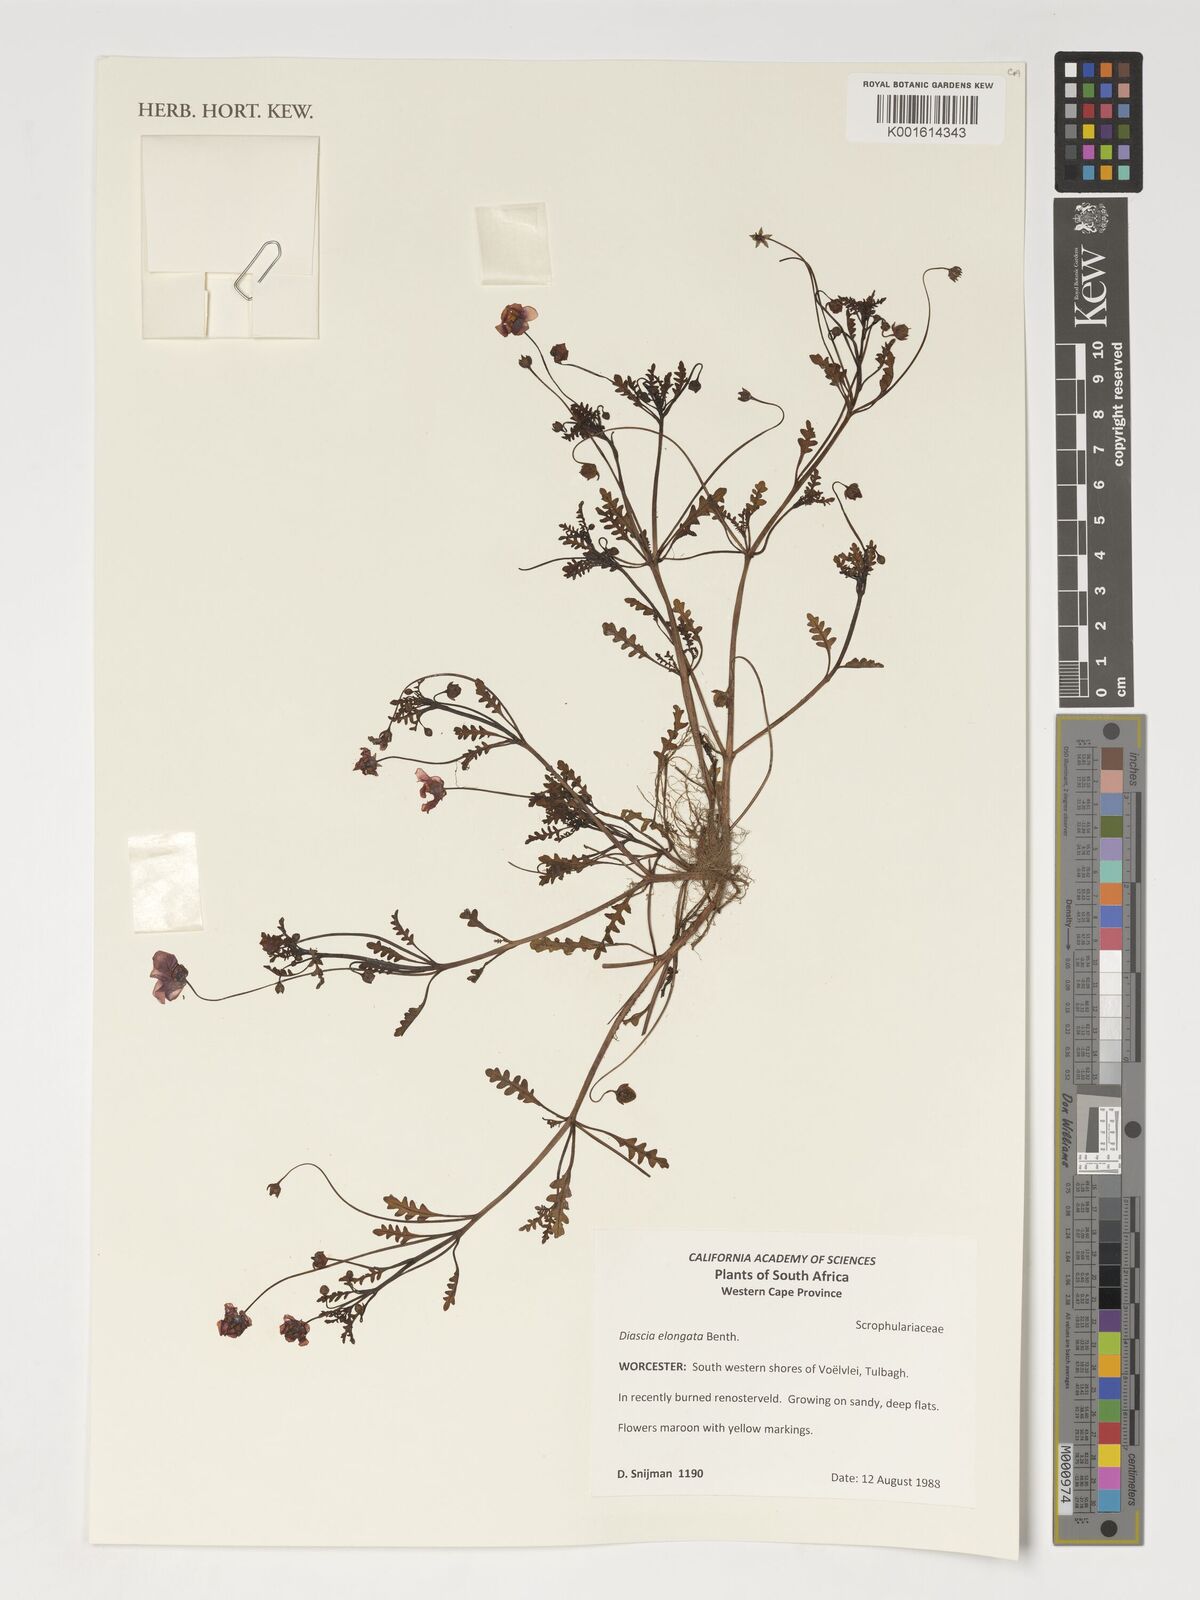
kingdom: Plantae
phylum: Tracheophyta
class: Magnoliopsida
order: Lamiales
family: Scrophulariaceae
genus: Diascia
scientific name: Diascia elongata
